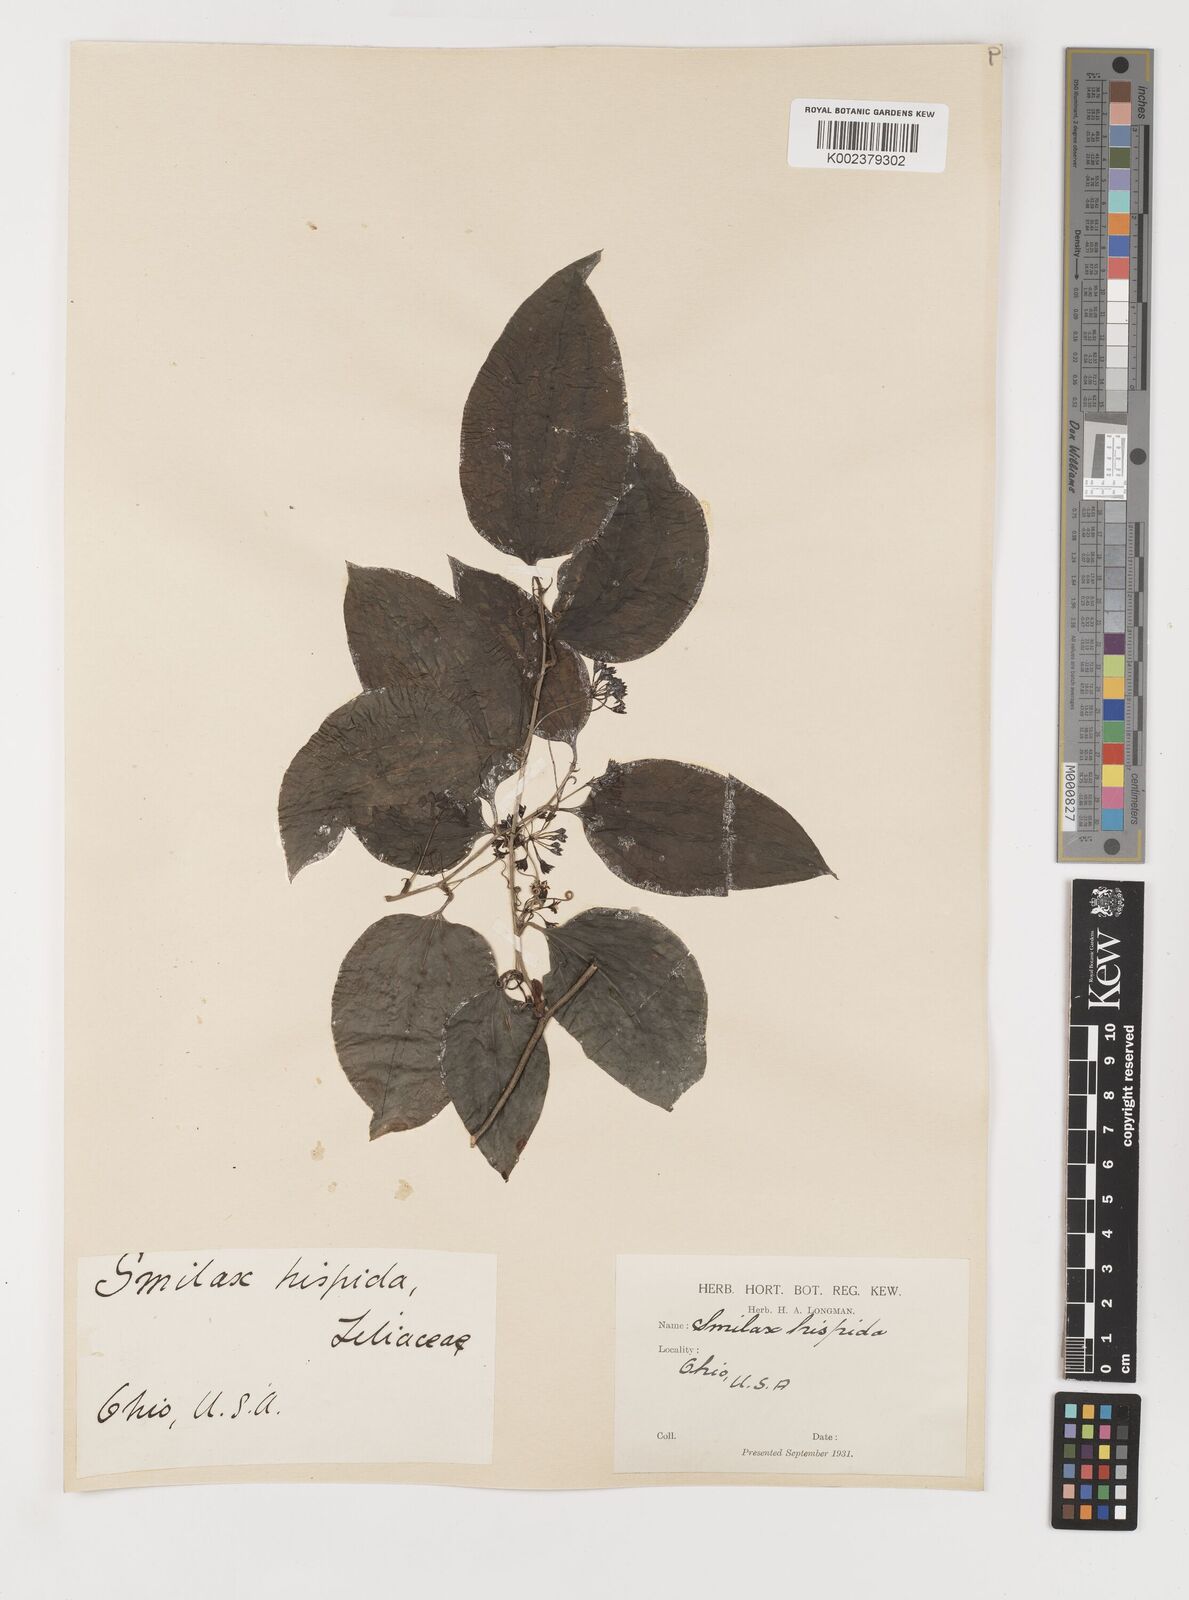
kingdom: Plantae
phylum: Tracheophyta
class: Liliopsida
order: Liliales
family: Smilacaceae
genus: Smilax
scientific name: Smilax tamnoides
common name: Hellfetter
